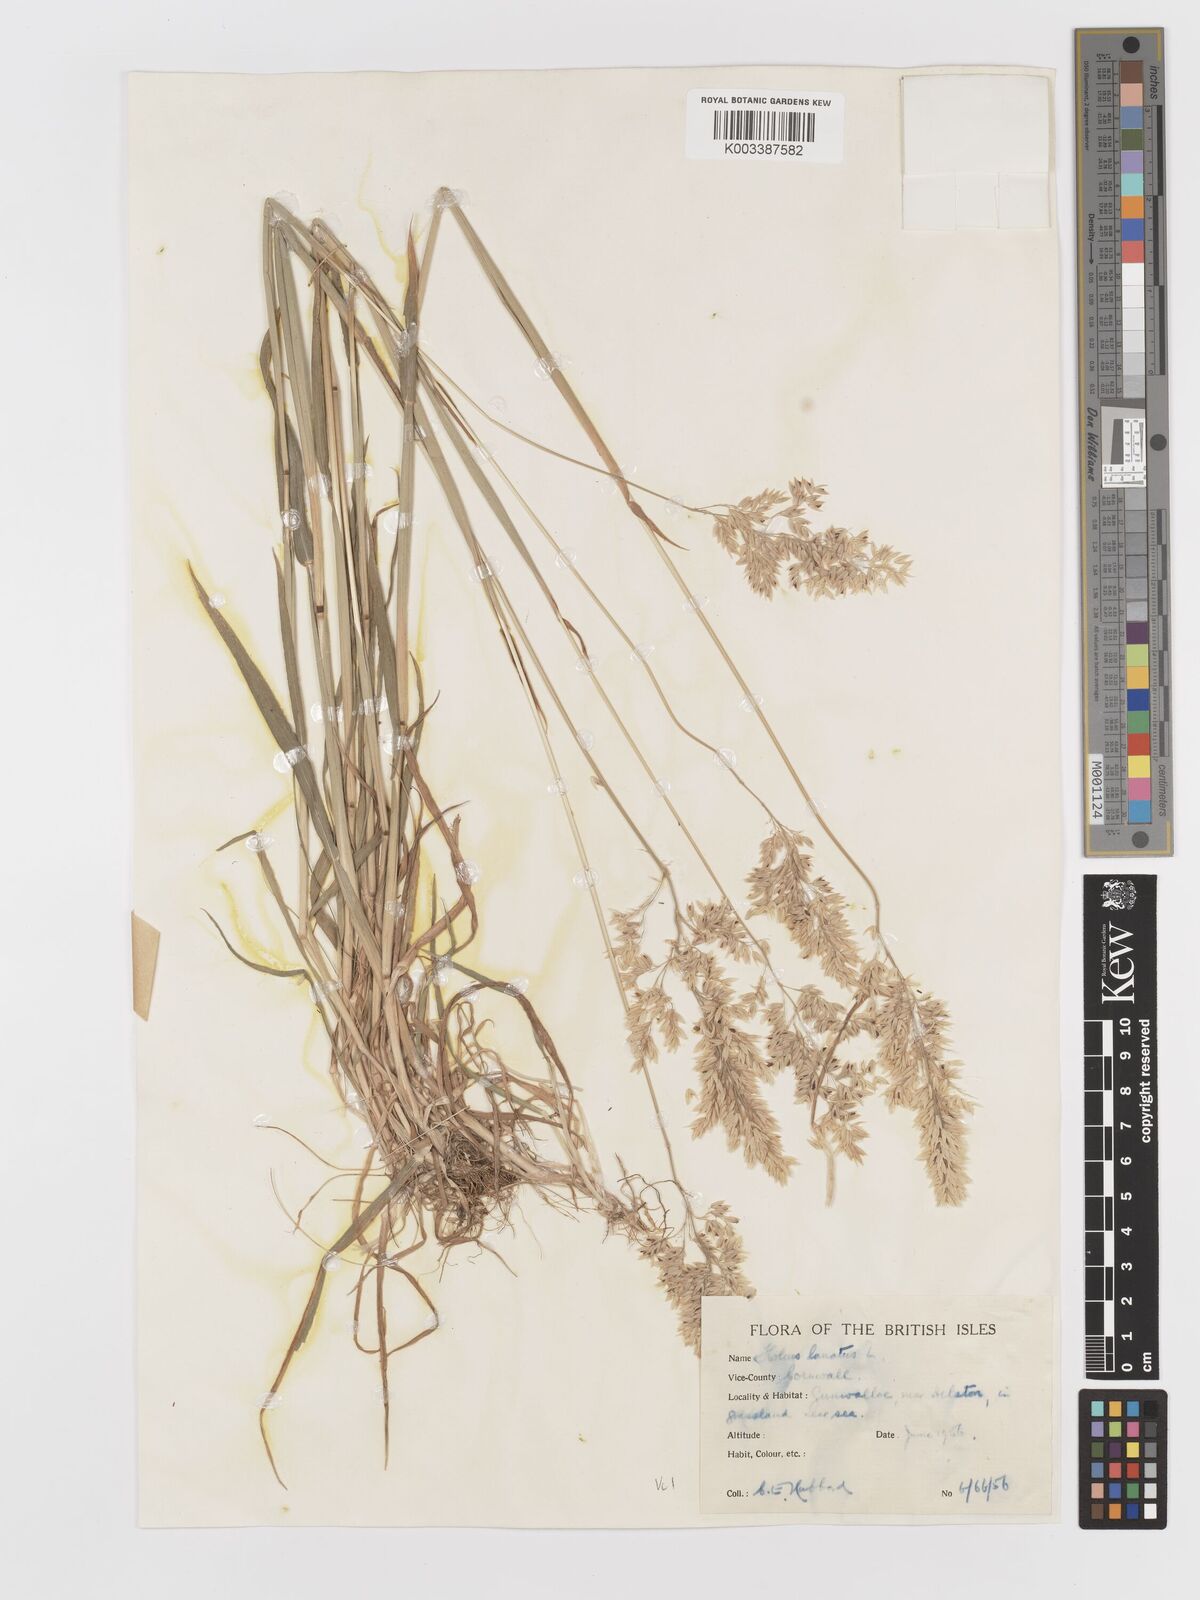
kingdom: Plantae
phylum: Tracheophyta
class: Liliopsida
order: Poales
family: Poaceae
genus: Holcus
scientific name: Holcus lanatus
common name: Yorkshire-fog
